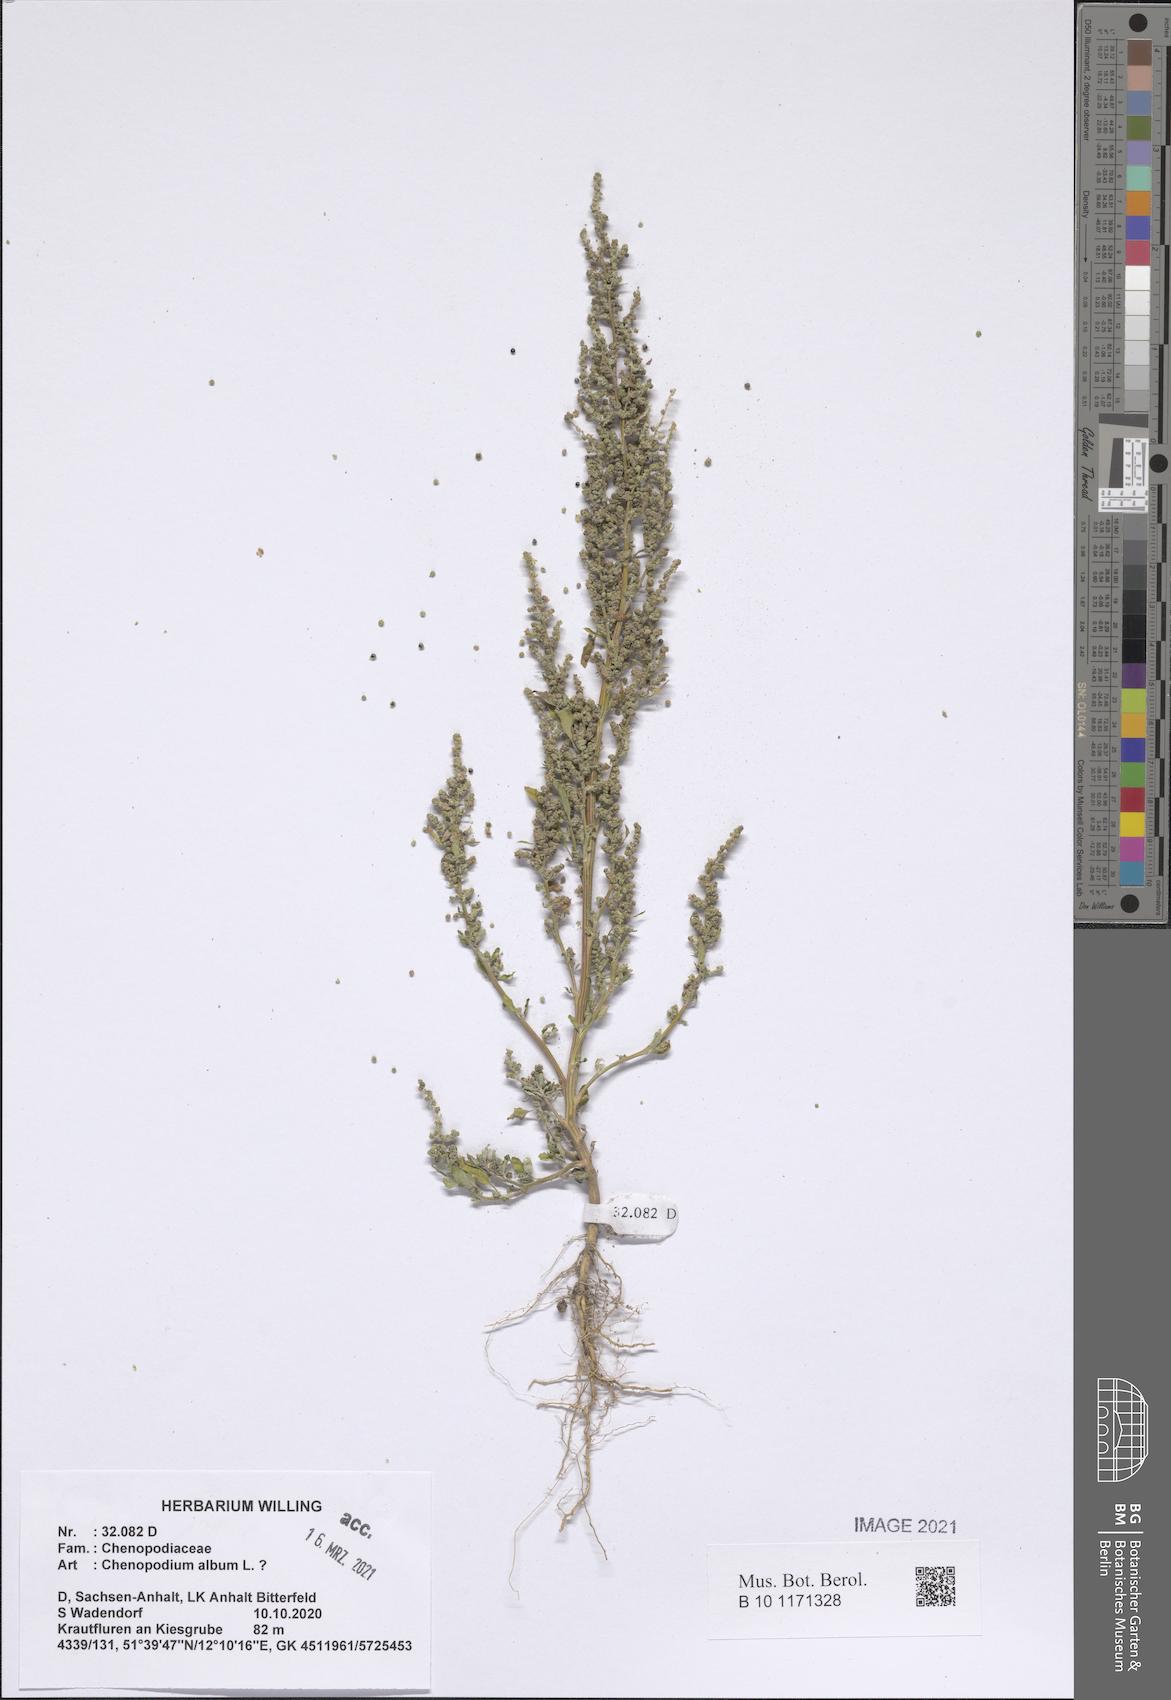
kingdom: Plantae
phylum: Tracheophyta
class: Magnoliopsida
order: Caryophyllales
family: Amaranthaceae
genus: Chenopodium
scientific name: Chenopodium album
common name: Fat-hen
